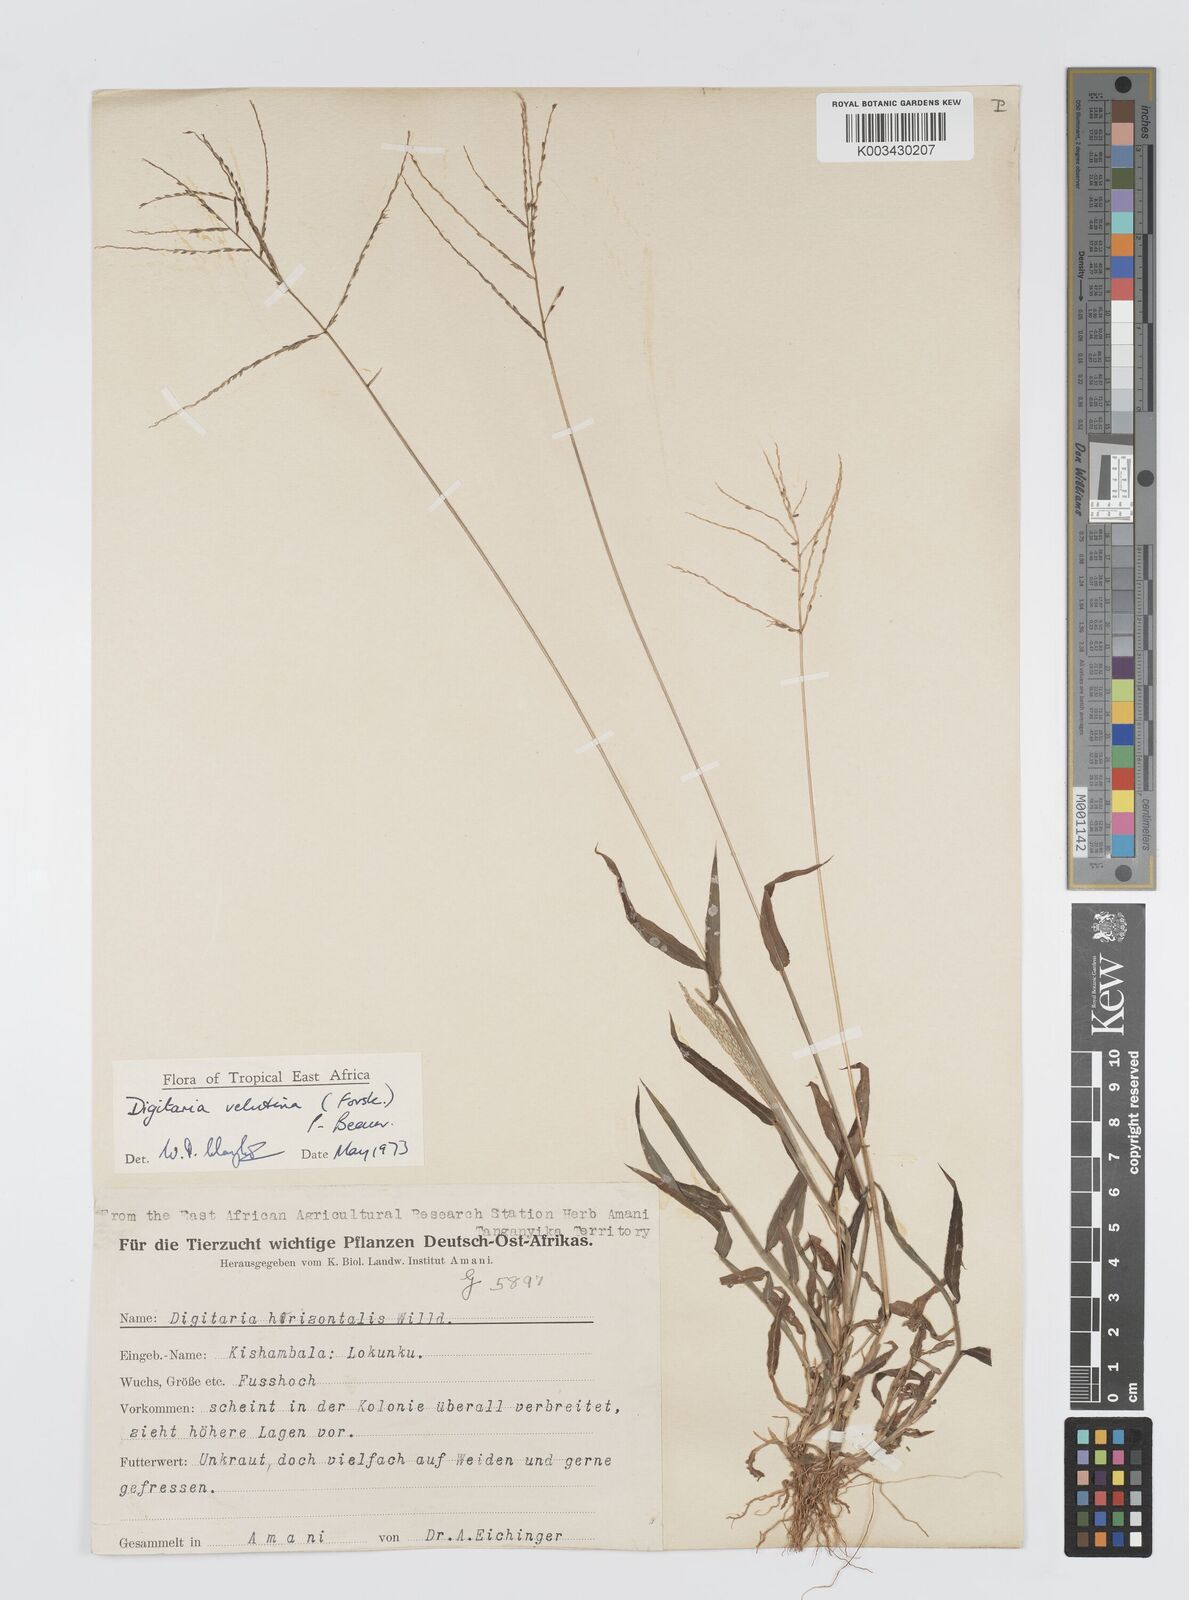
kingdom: Plantae
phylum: Tracheophyta
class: Liliopsida
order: Poales
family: Poaceae
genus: Digitaria
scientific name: Digitaria velutina
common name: Long-plume finger grass
